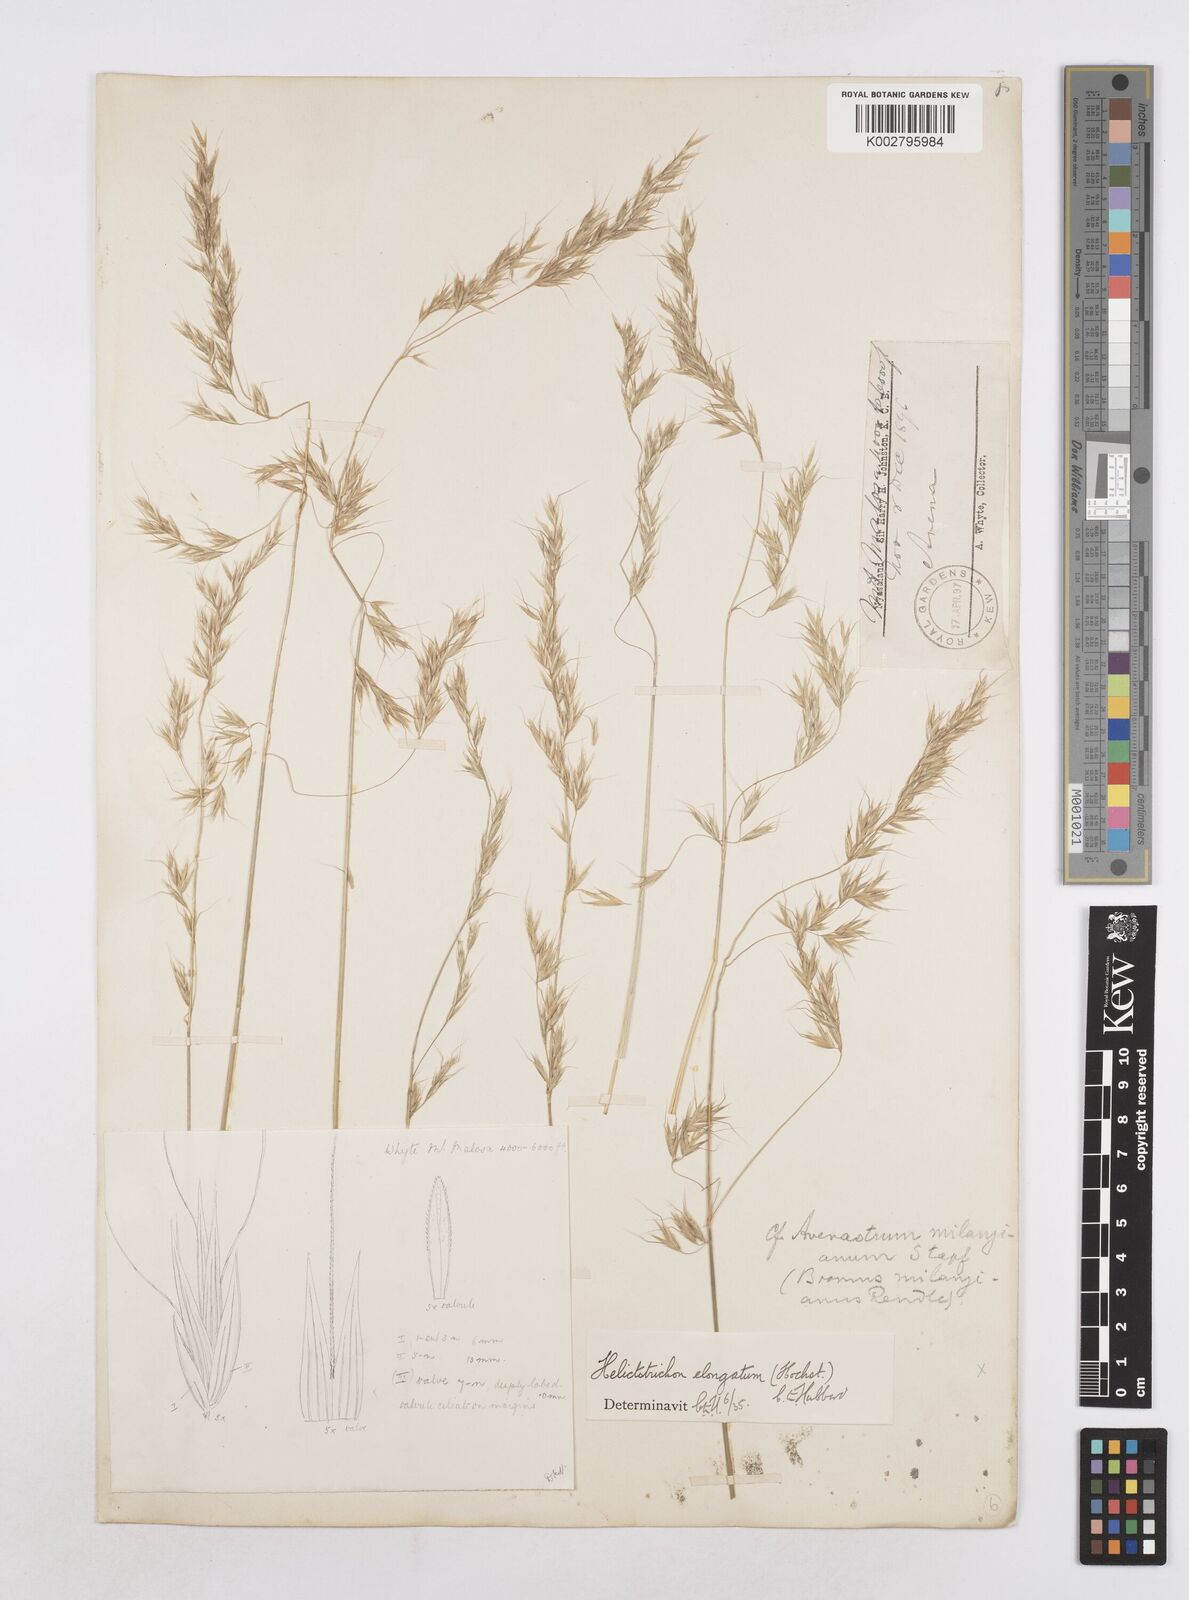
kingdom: Plantae
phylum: Tracheophyta
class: Liliopsida
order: Poales
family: Poaceae
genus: Trisetopsis
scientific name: Trisetopsis elongata
